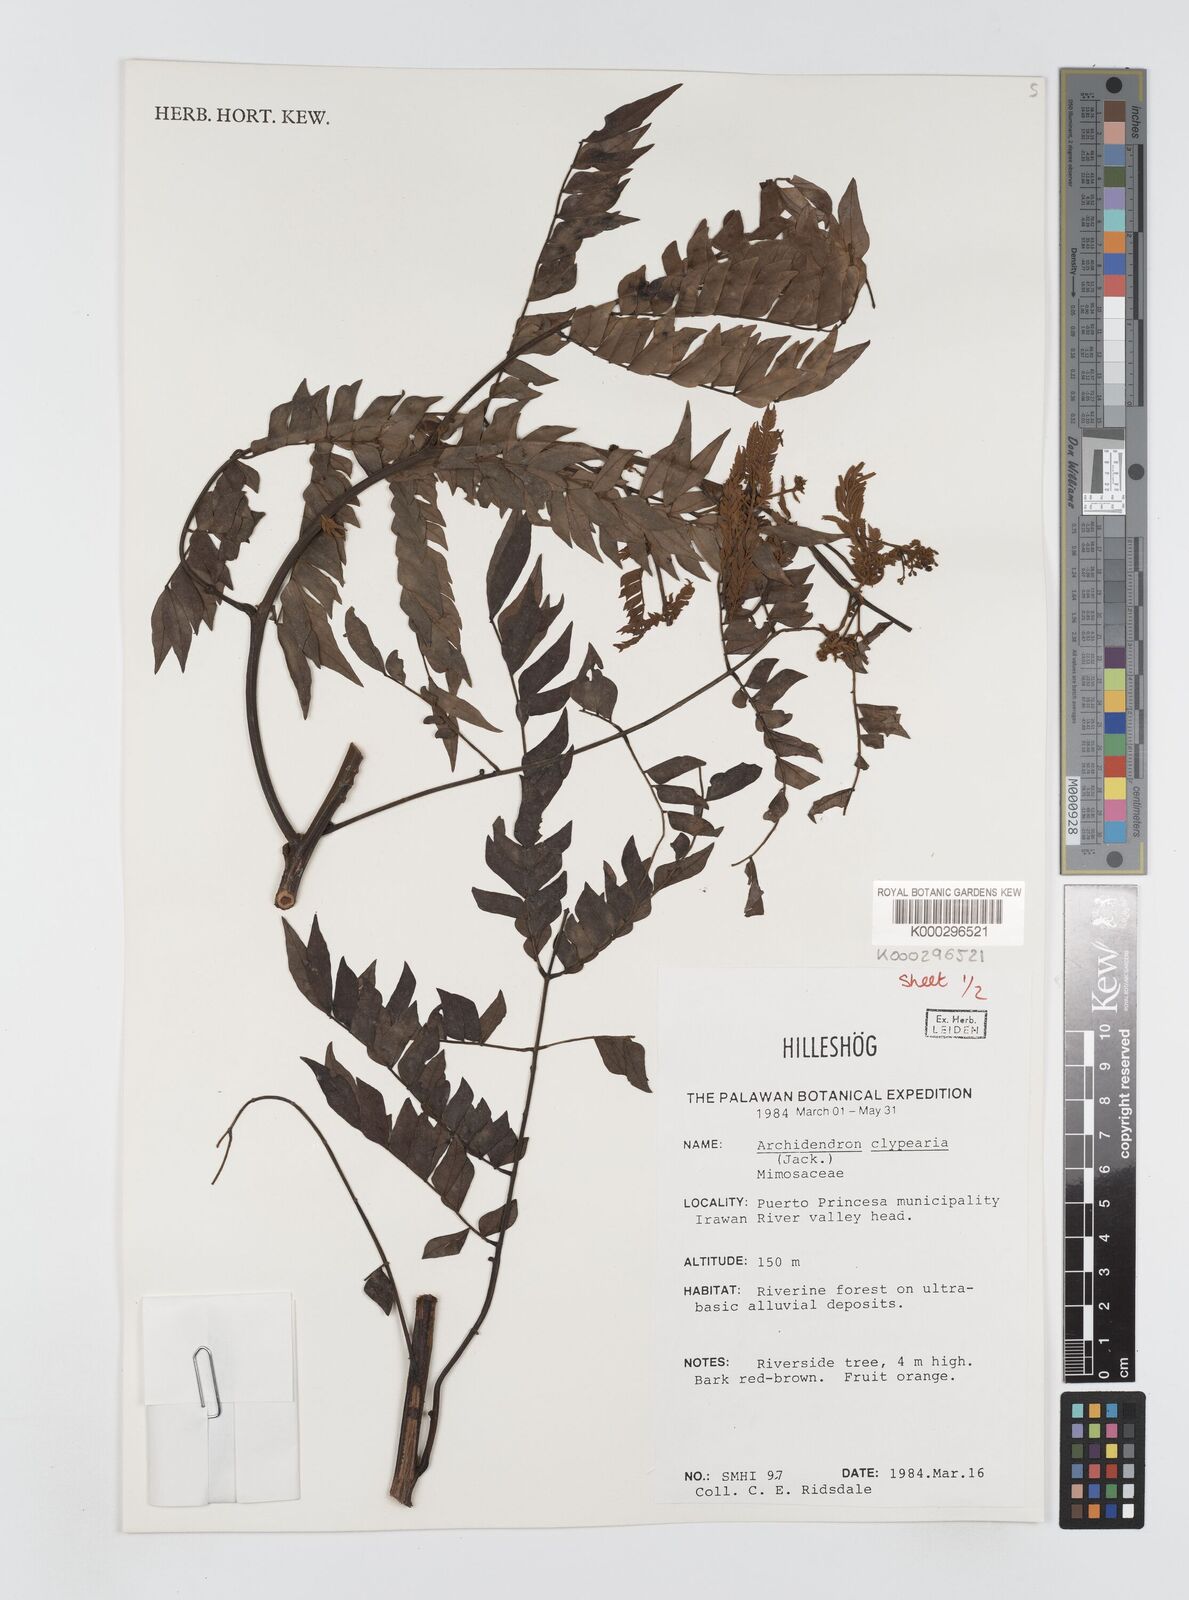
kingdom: Plantae
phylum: Tracheophyta
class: Magnoliopsida
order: Fabales
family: Fabaceae
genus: Archidendron
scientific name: Archidendron clypearia
